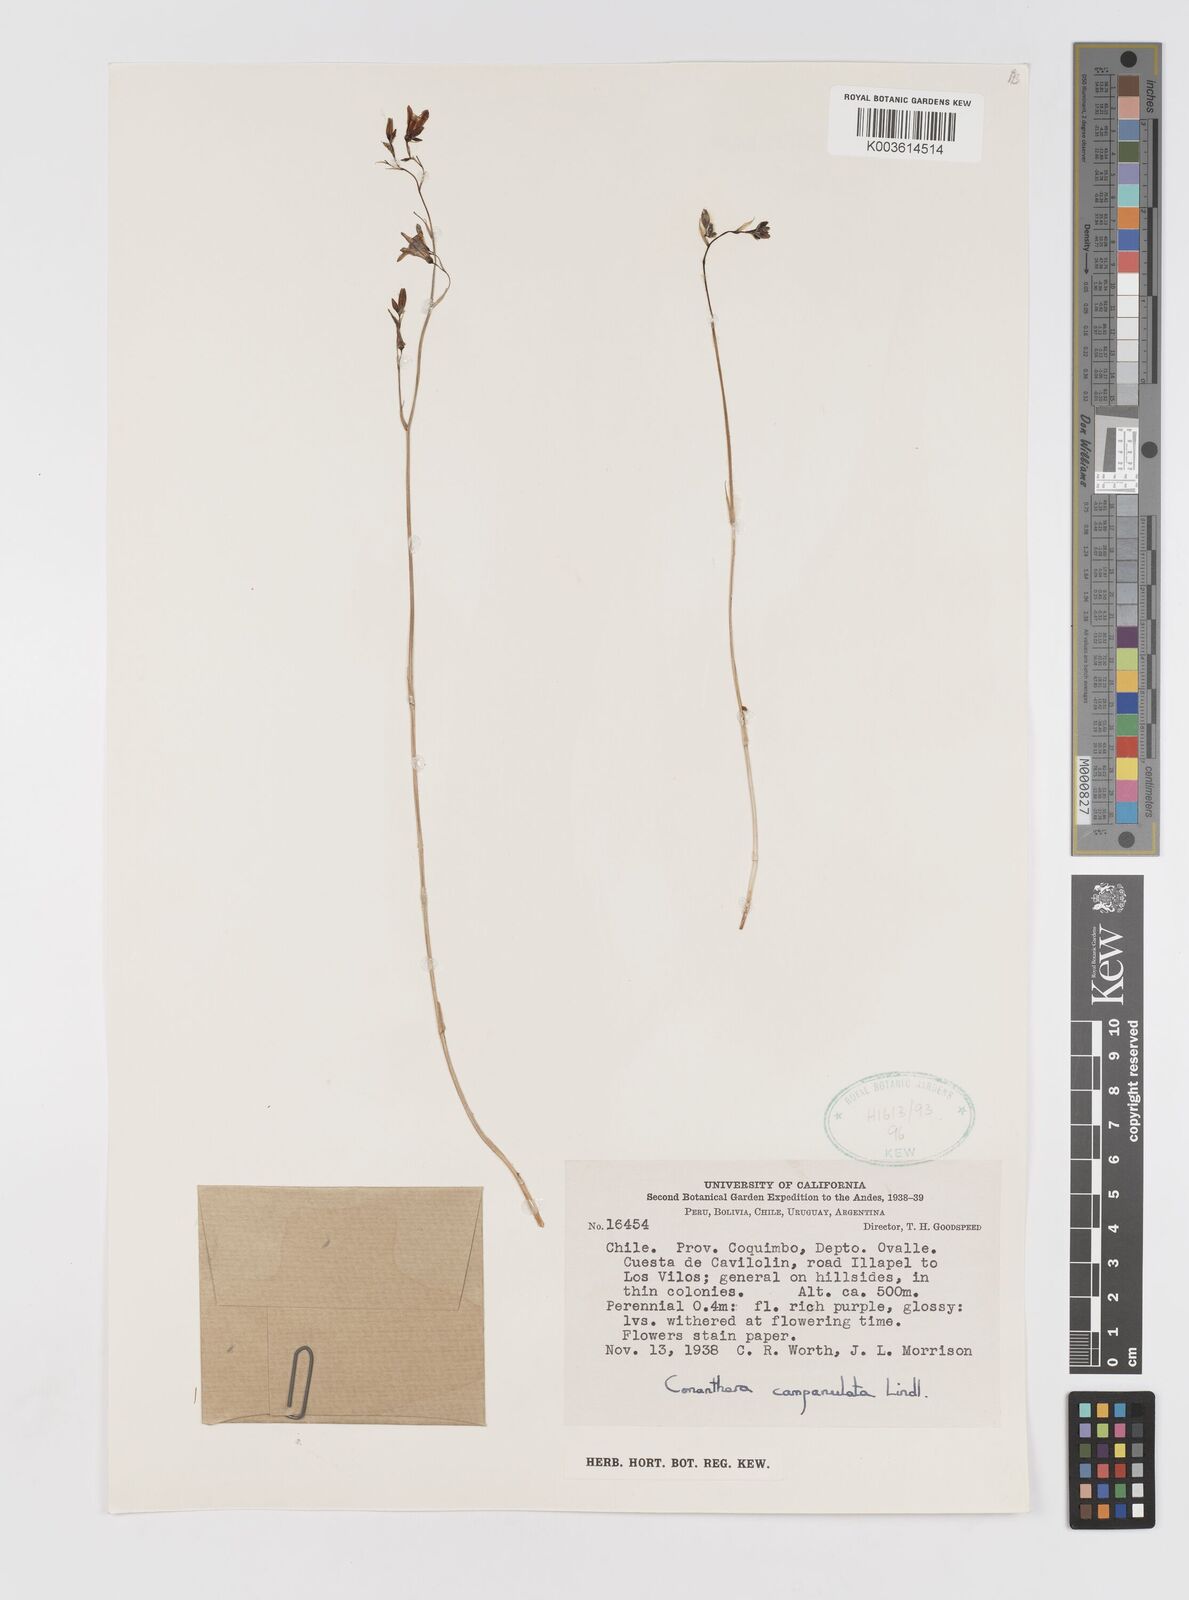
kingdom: Plantae
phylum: Tracheophyta
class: Liliopsida
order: Asparagales
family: Tecophilaeaceae
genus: Conanthera
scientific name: Conanthera campanulata
